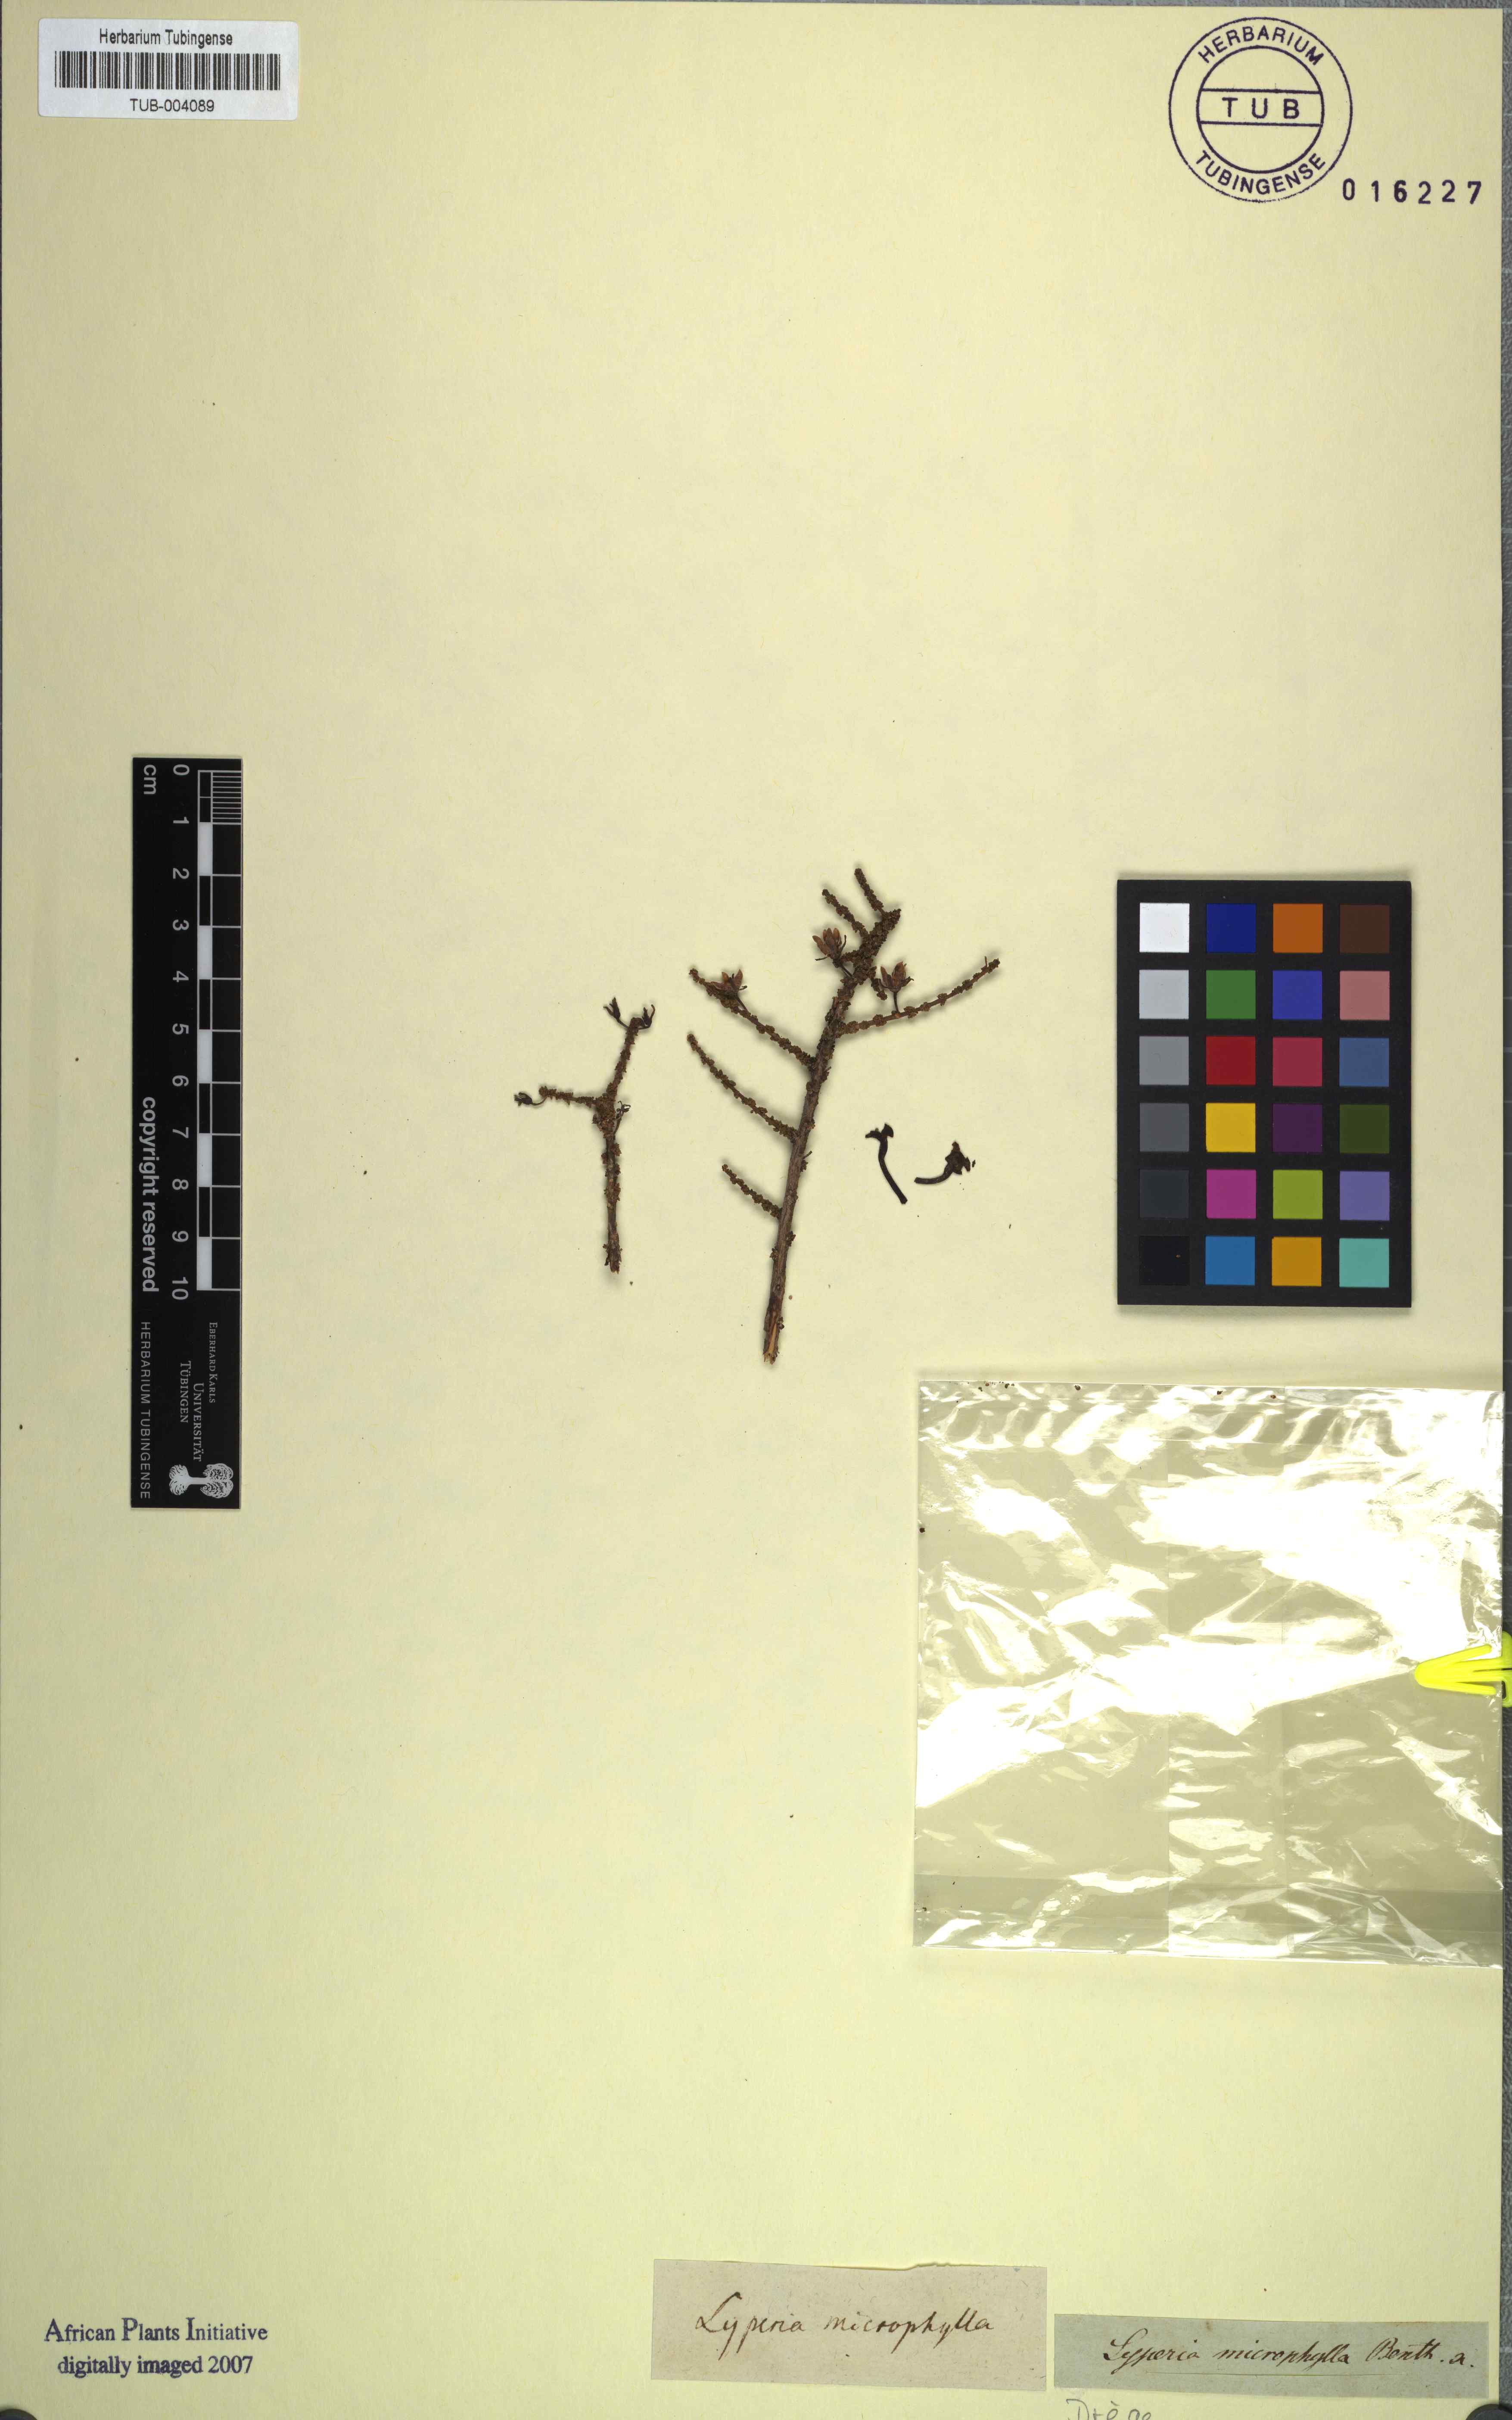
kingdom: Plantae
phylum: Tracheophyta
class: Magnoliopsida
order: Lamiales
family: Scrophulariaceae
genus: Jamesbrittenia
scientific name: Jamesbrittenia microphylla
